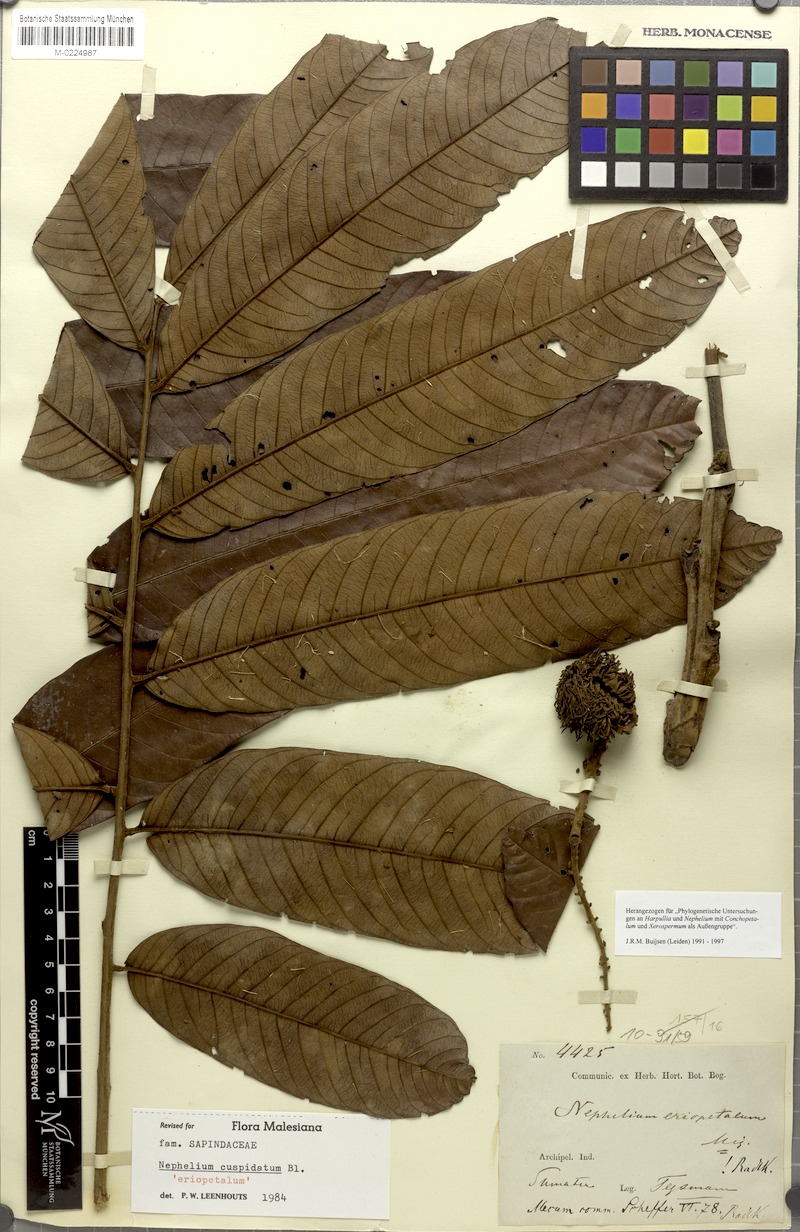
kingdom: Plantae
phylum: Tracheophyta
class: Magnoliopsida
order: Sapindales
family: Sapindaceae
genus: Nephelium
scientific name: Nephelium cuspidatum
